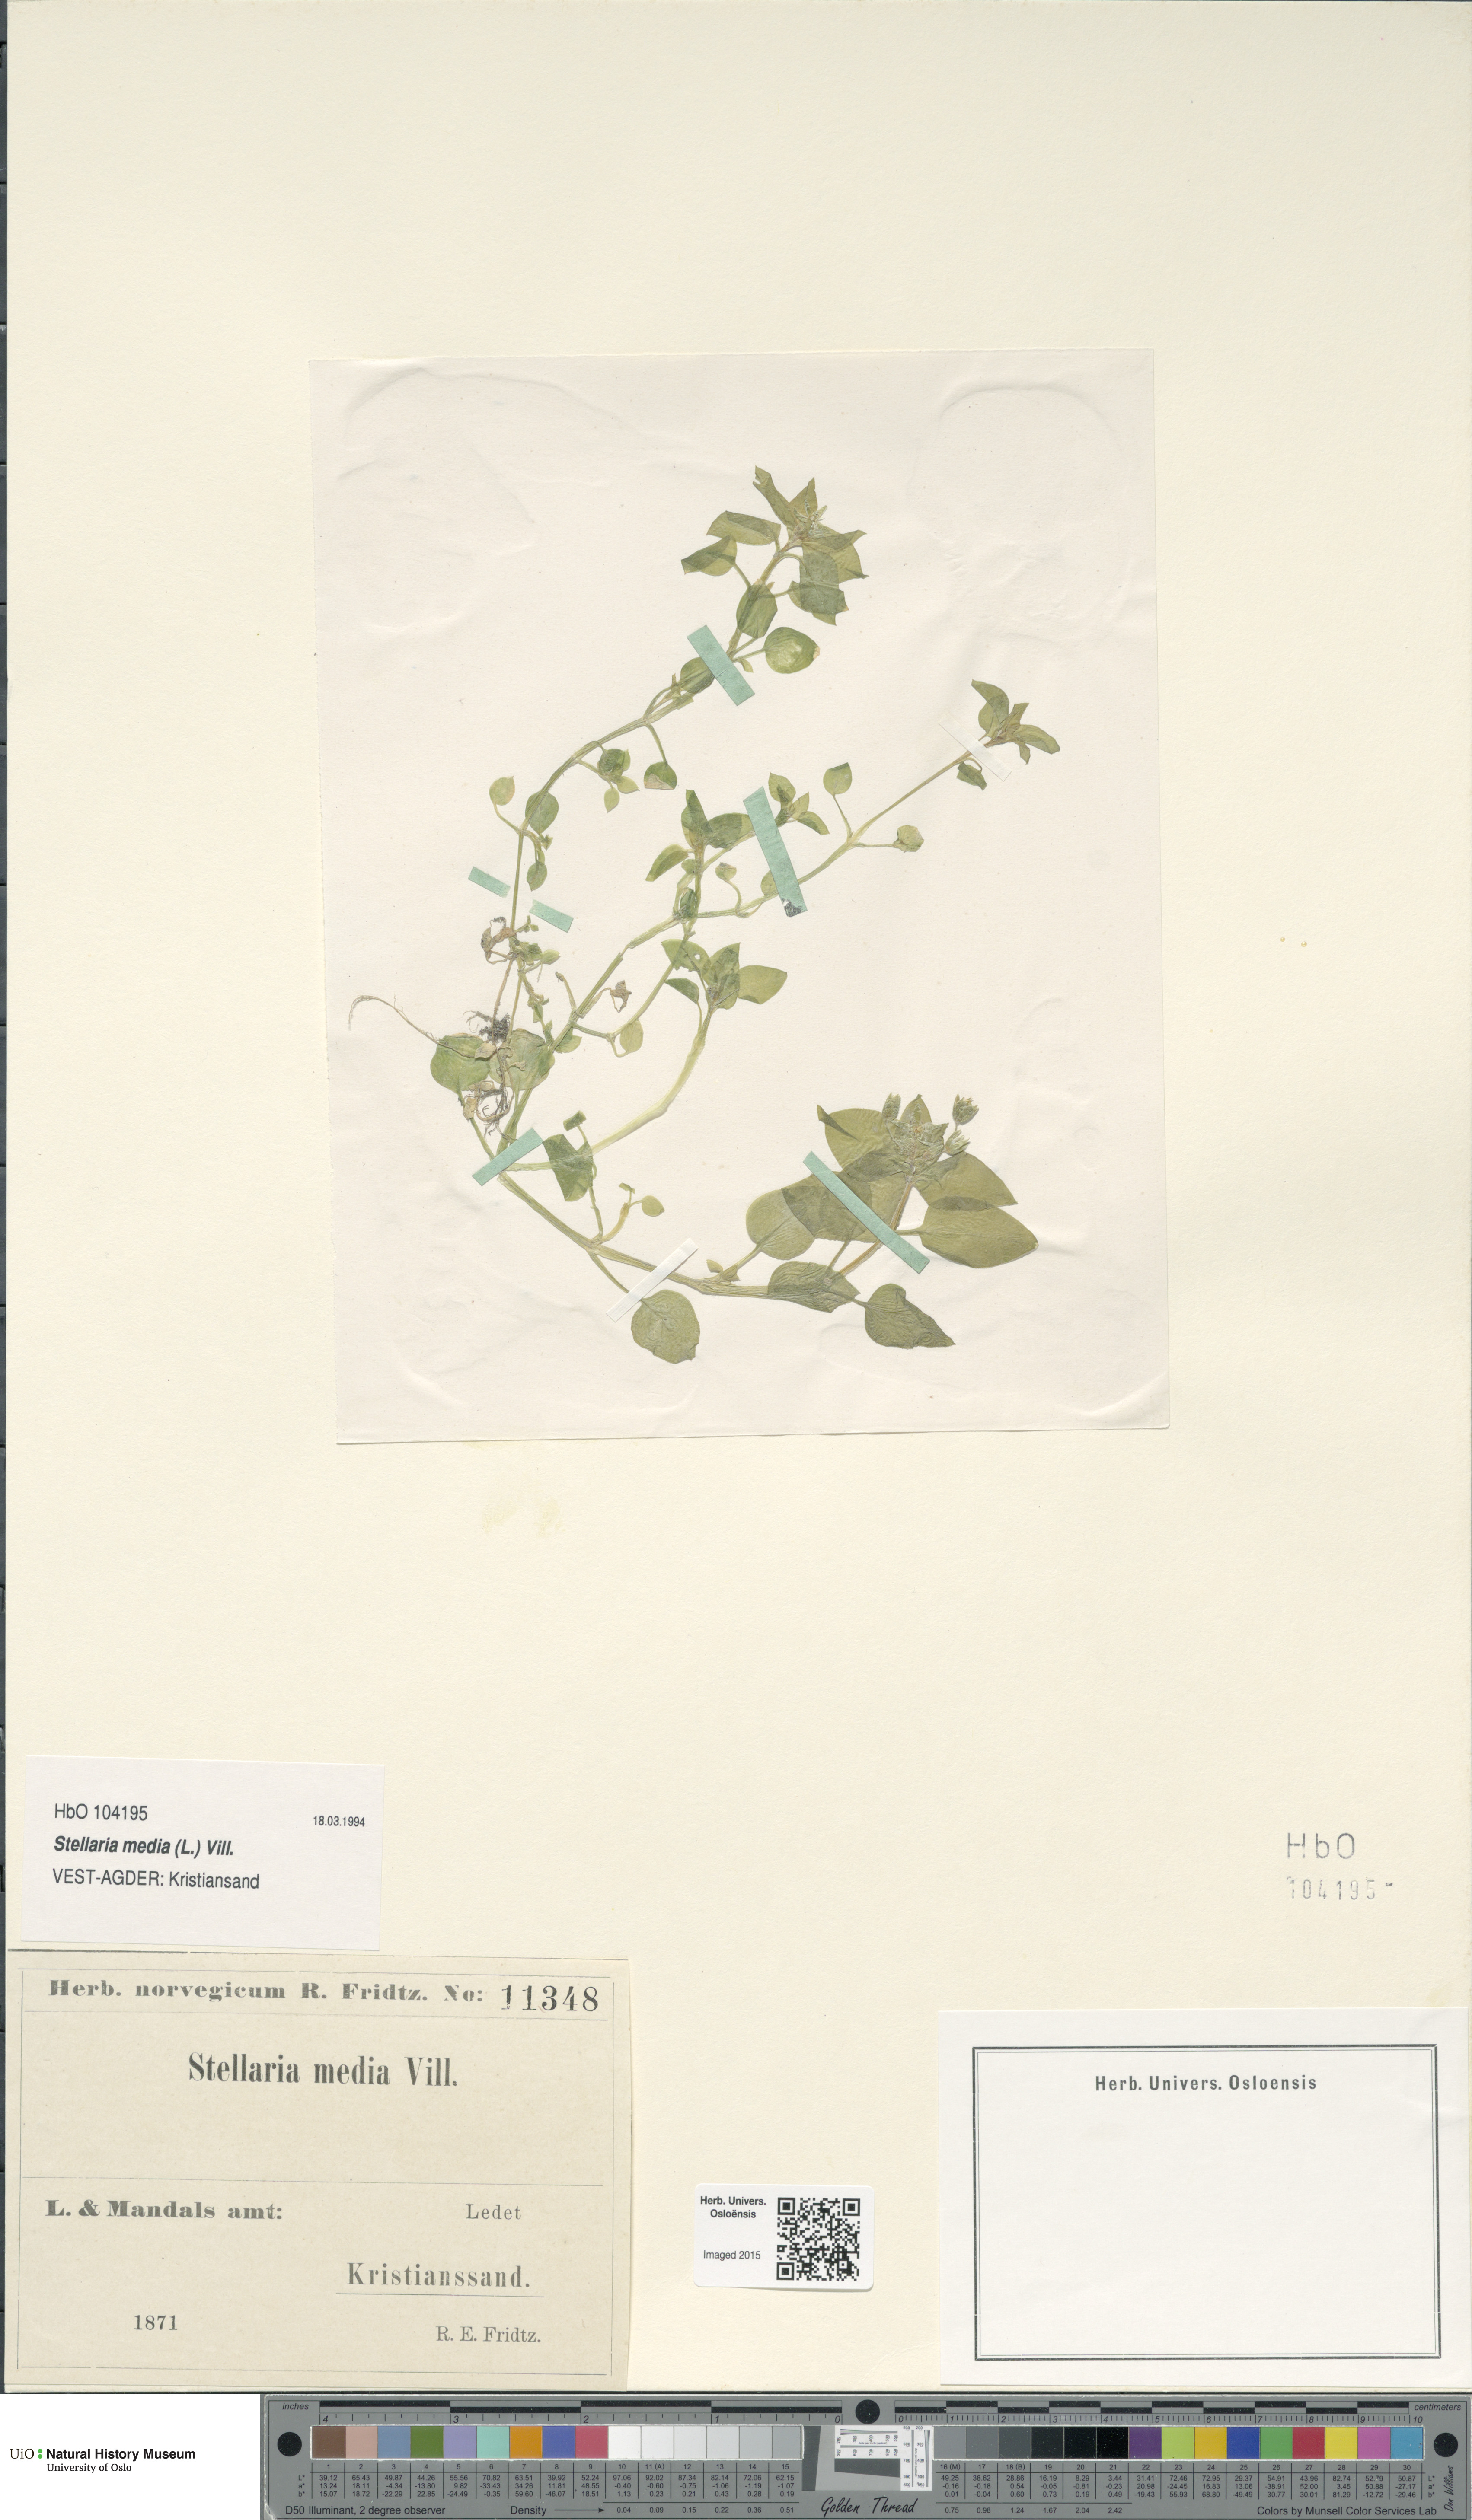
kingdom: Plantae
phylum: Tracheophyta
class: Magnoliopsida
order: Caryophyllales
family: Caryophyllaceae
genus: Stellaria
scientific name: Stellaria media
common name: Common chickweed
